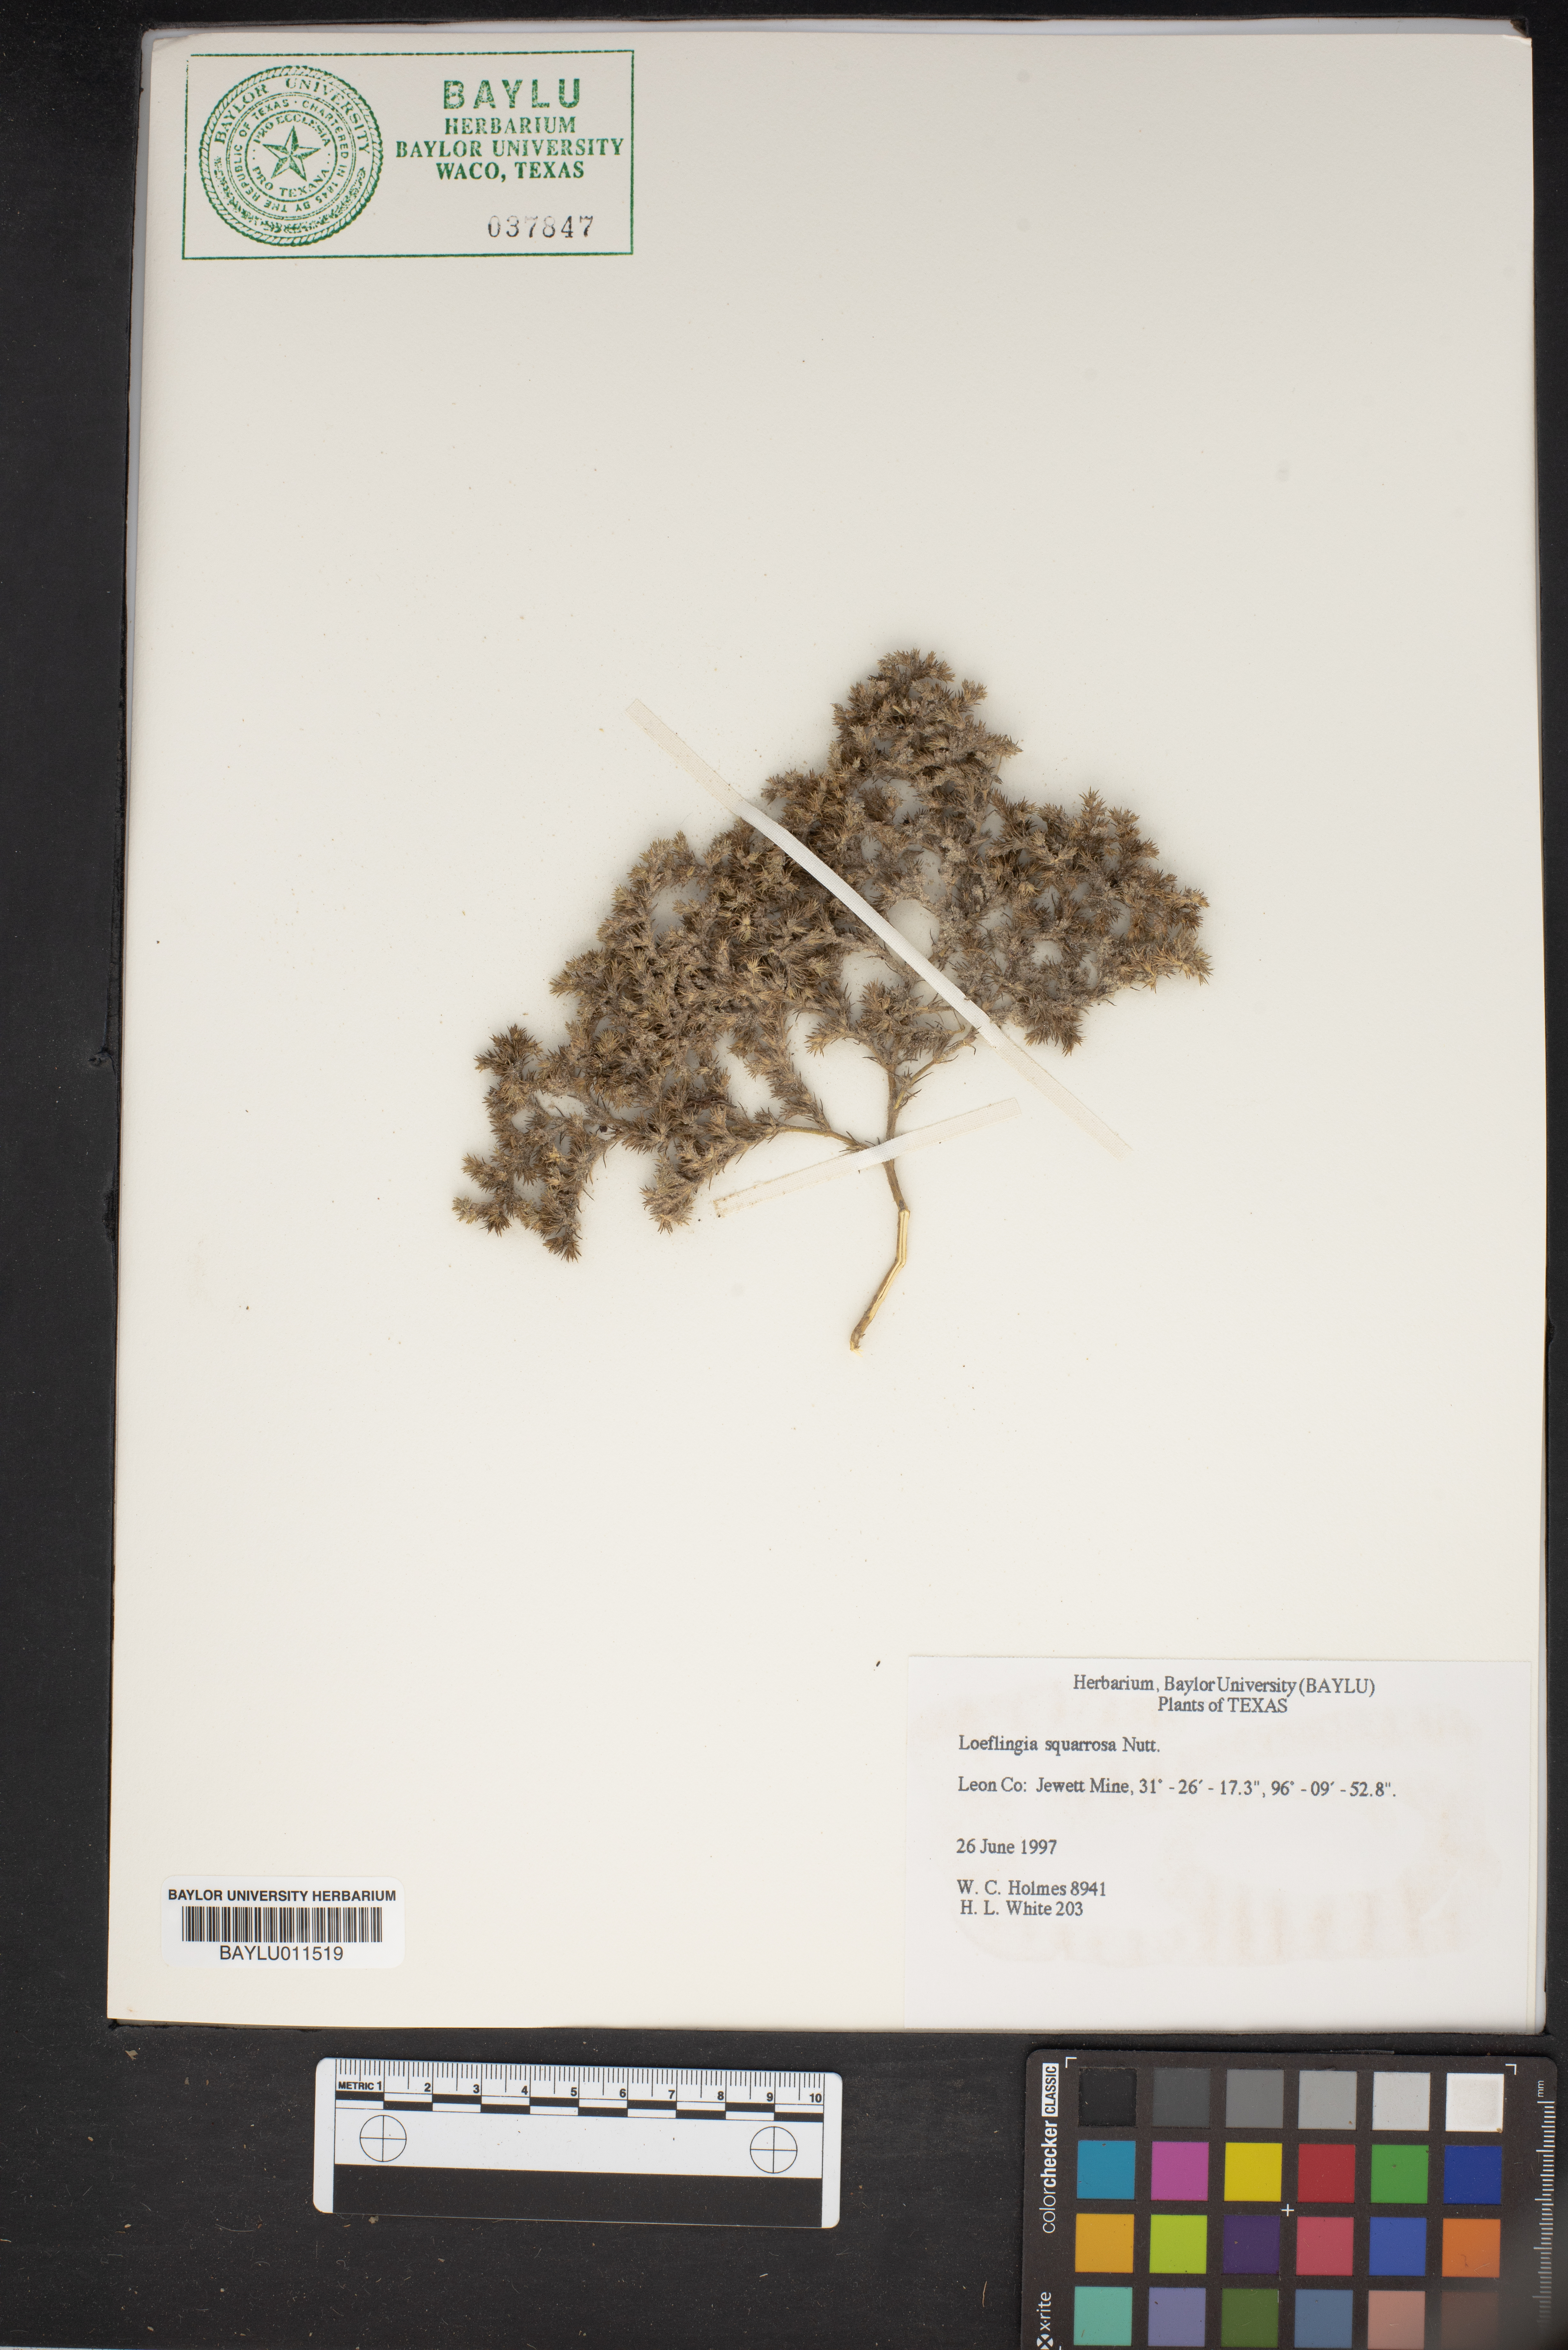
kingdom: Plantae
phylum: Tracheophyta
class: Magnoliopsida
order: Caryophyllales
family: Caryophyllaceae
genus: Loeflingia
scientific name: Loeflingia squarrosa
